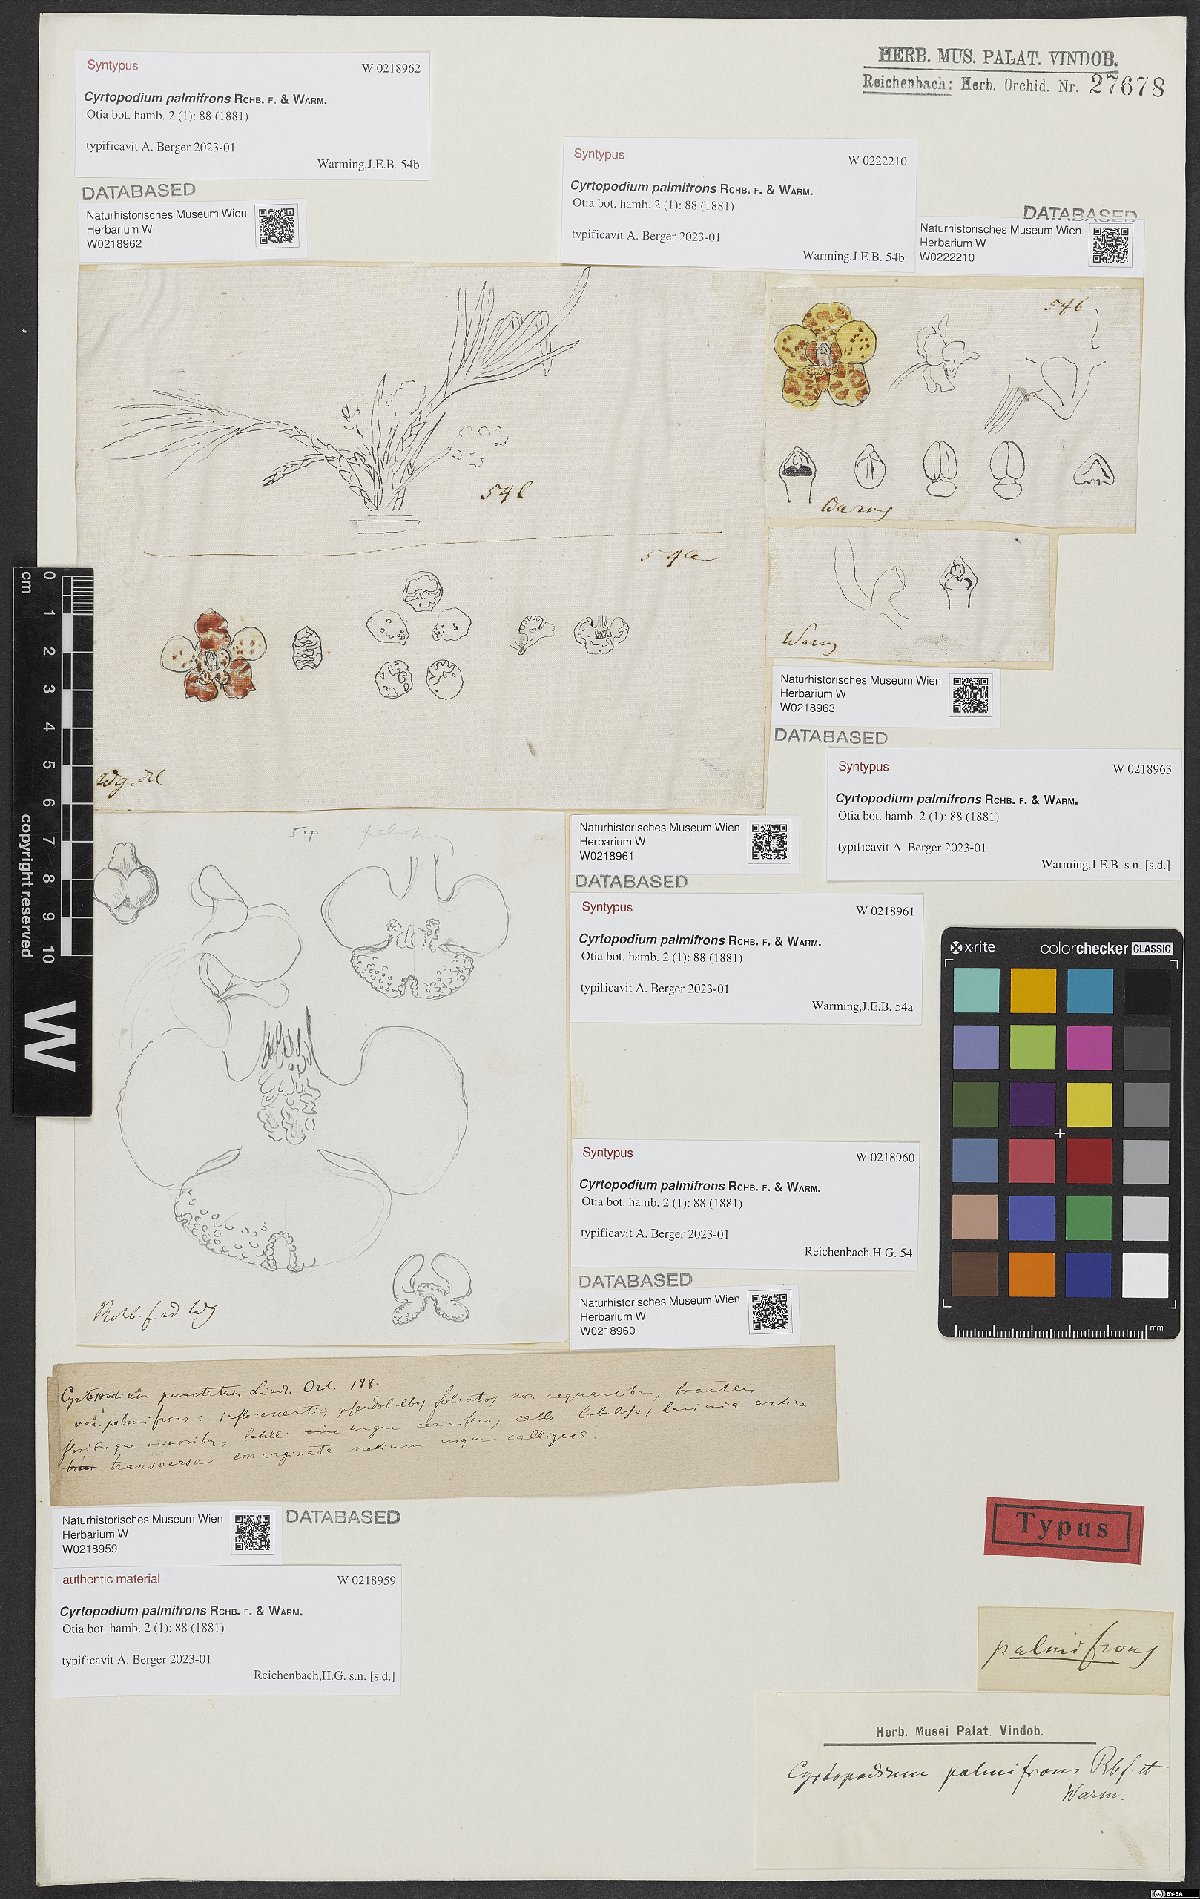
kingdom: Plantae
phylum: Tracheophyta
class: Liliopsida
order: Asparagales
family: Orchidaceae
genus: Cyrtopodium
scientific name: Cyrtopodium palmifrons
